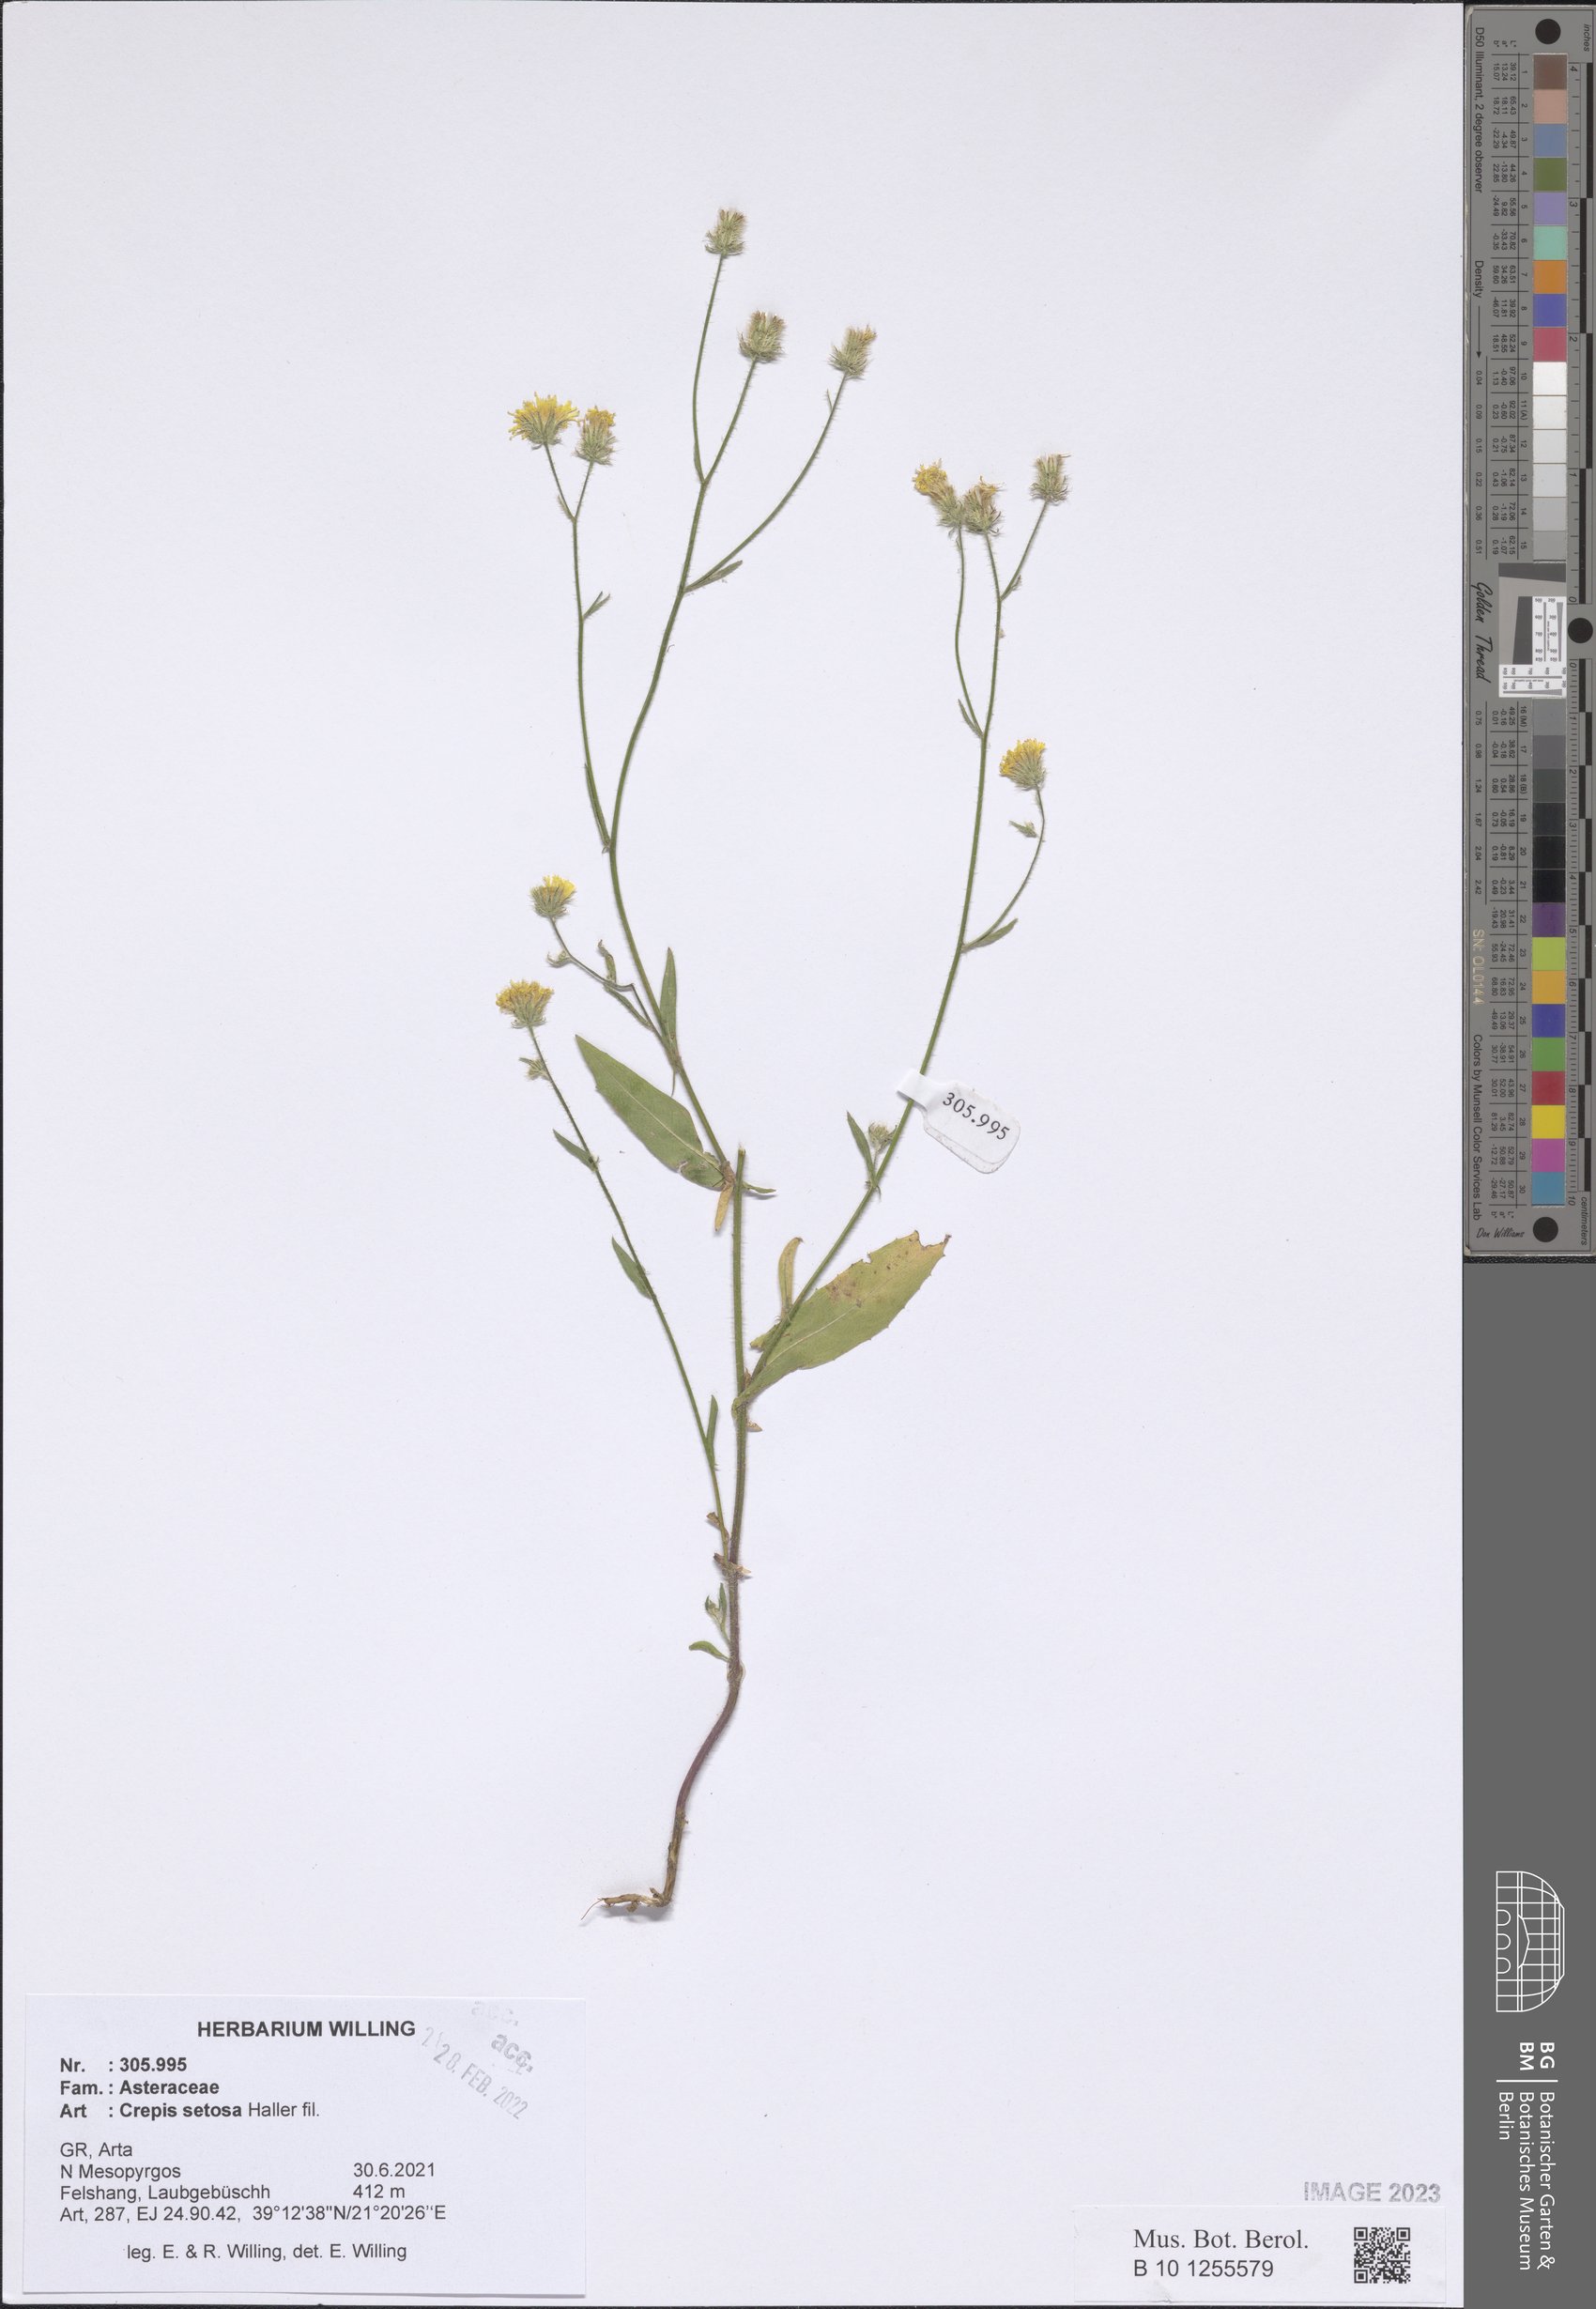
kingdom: Plantae
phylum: Tracheophyta
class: Magnoliopsida
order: Asterales
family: Asteraceae
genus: Crepis
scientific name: Crepis setosa
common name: Bristly hawk's-beard
